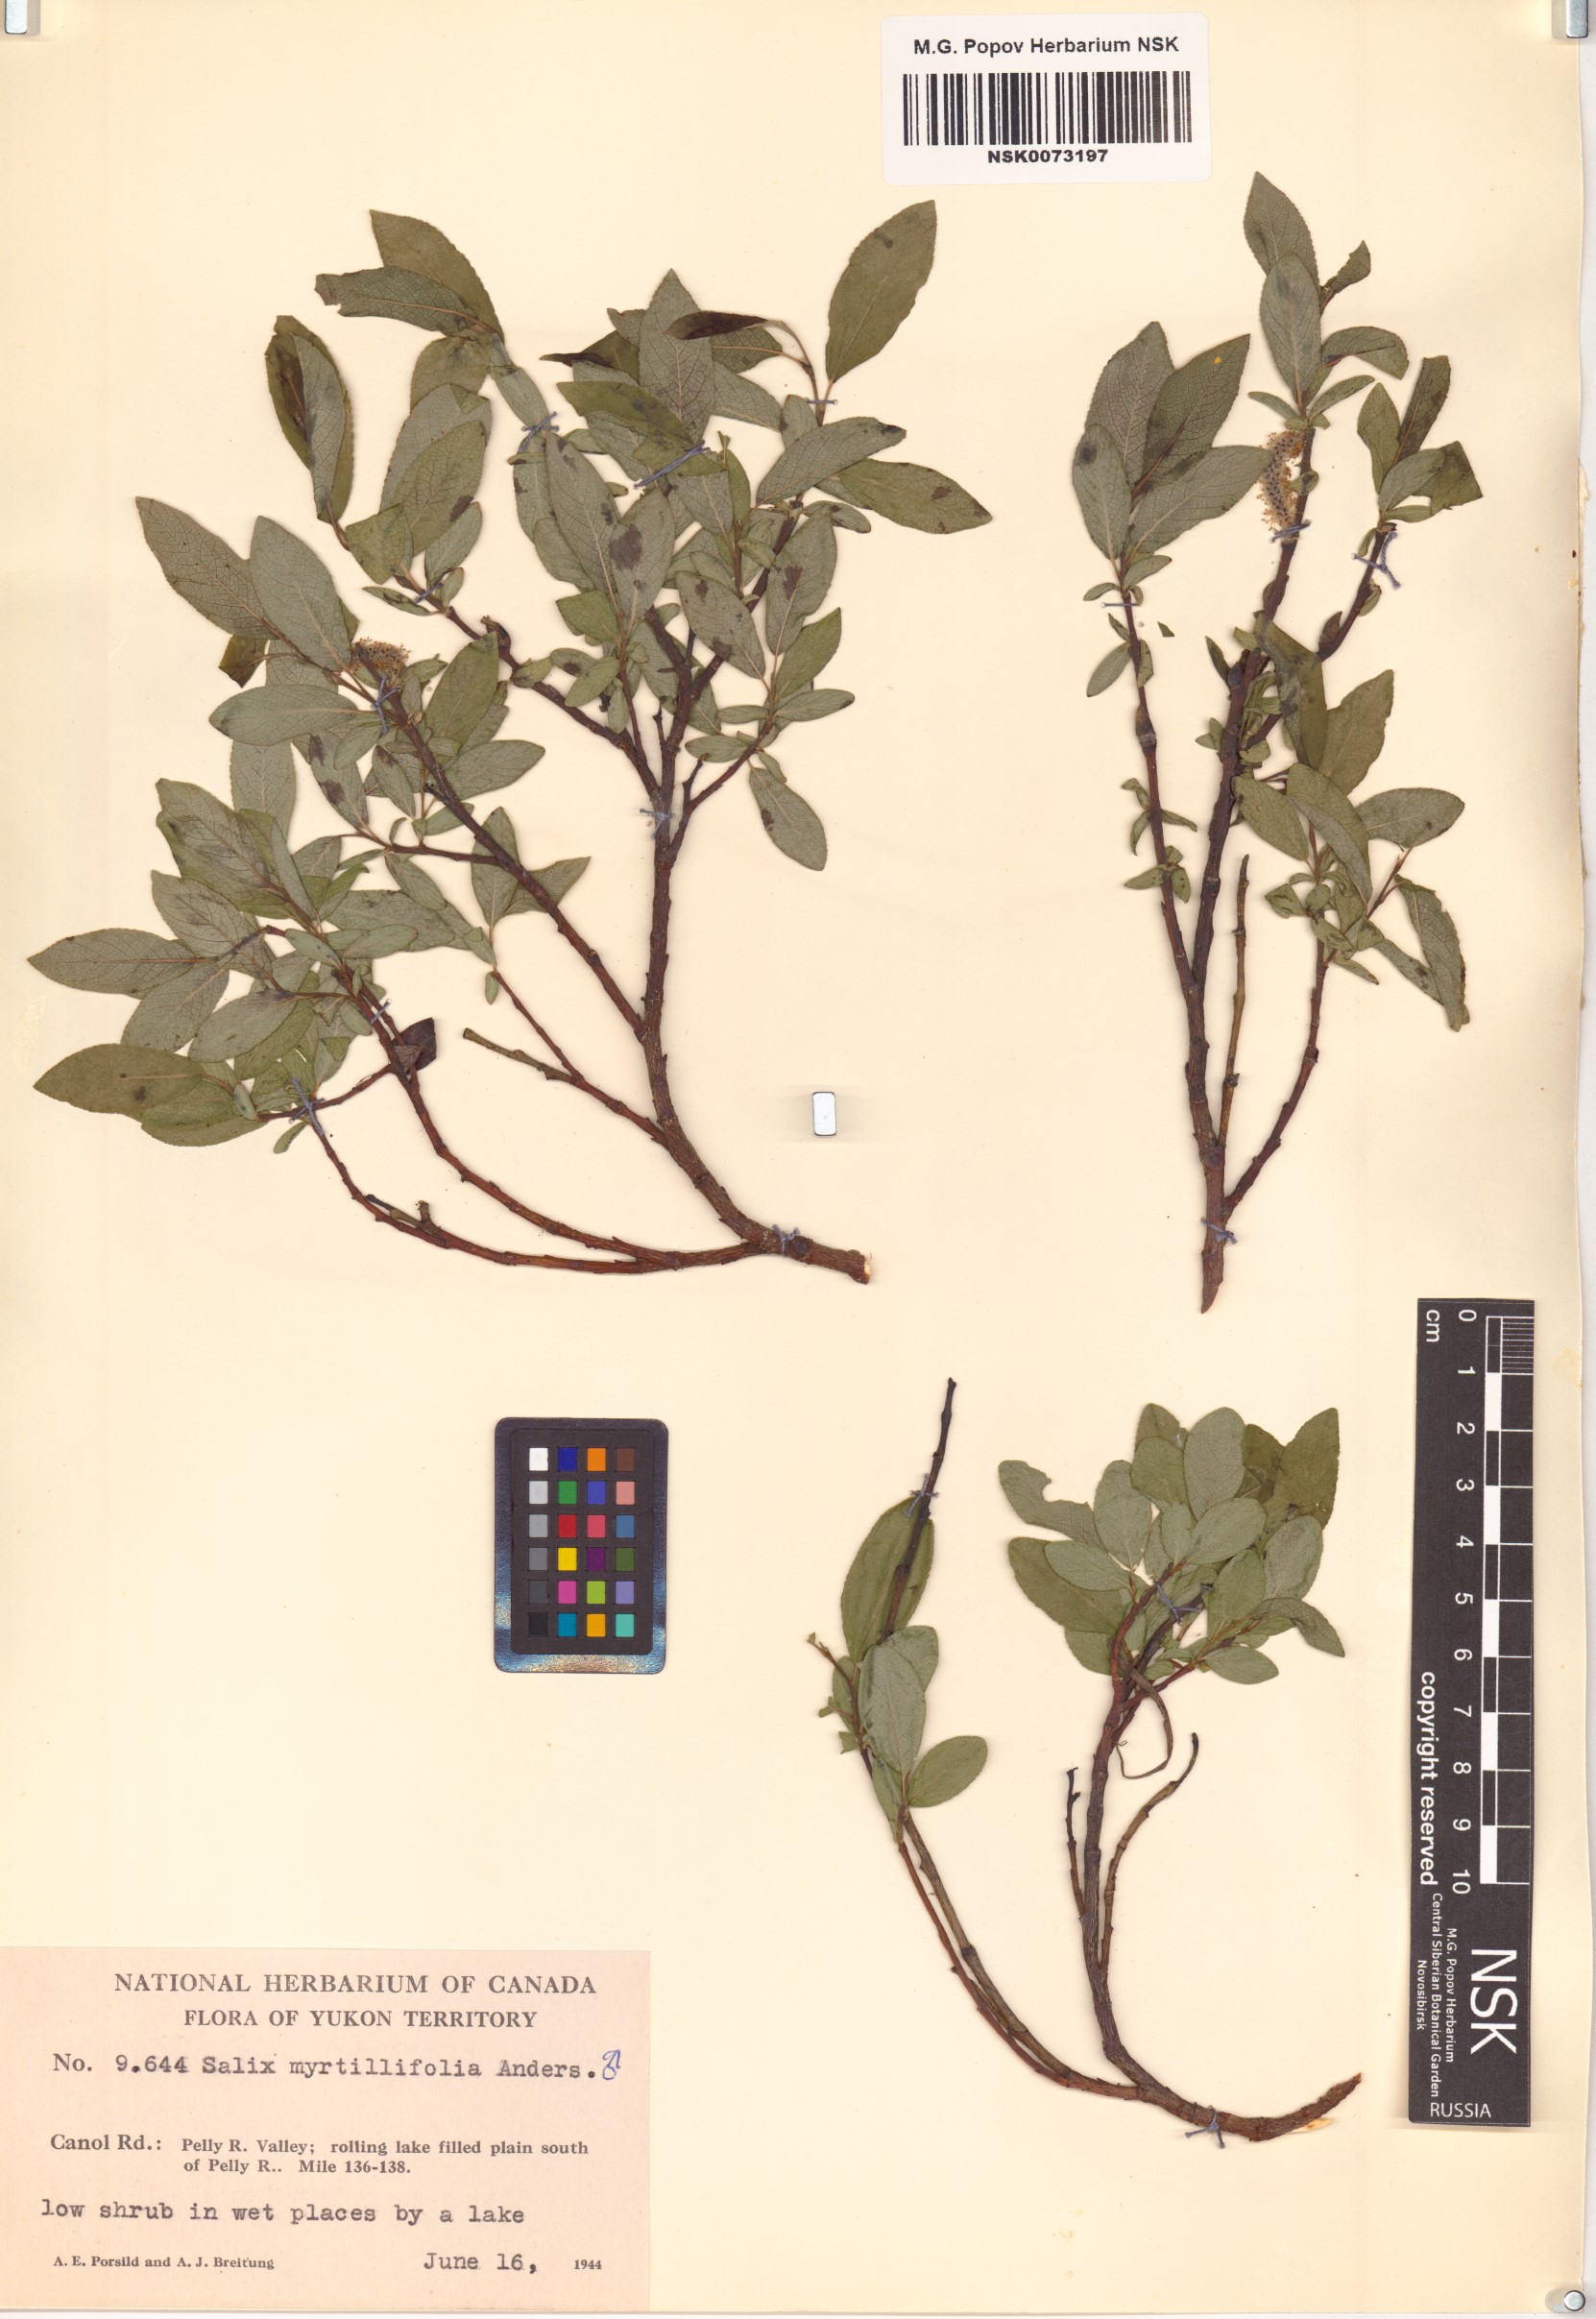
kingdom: Plantae
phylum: Tracheophyta
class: Magnoliopsida
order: Malpighiales
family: Salicaceae
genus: Salix
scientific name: Salix myrtillifolia
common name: Bilberry willow
